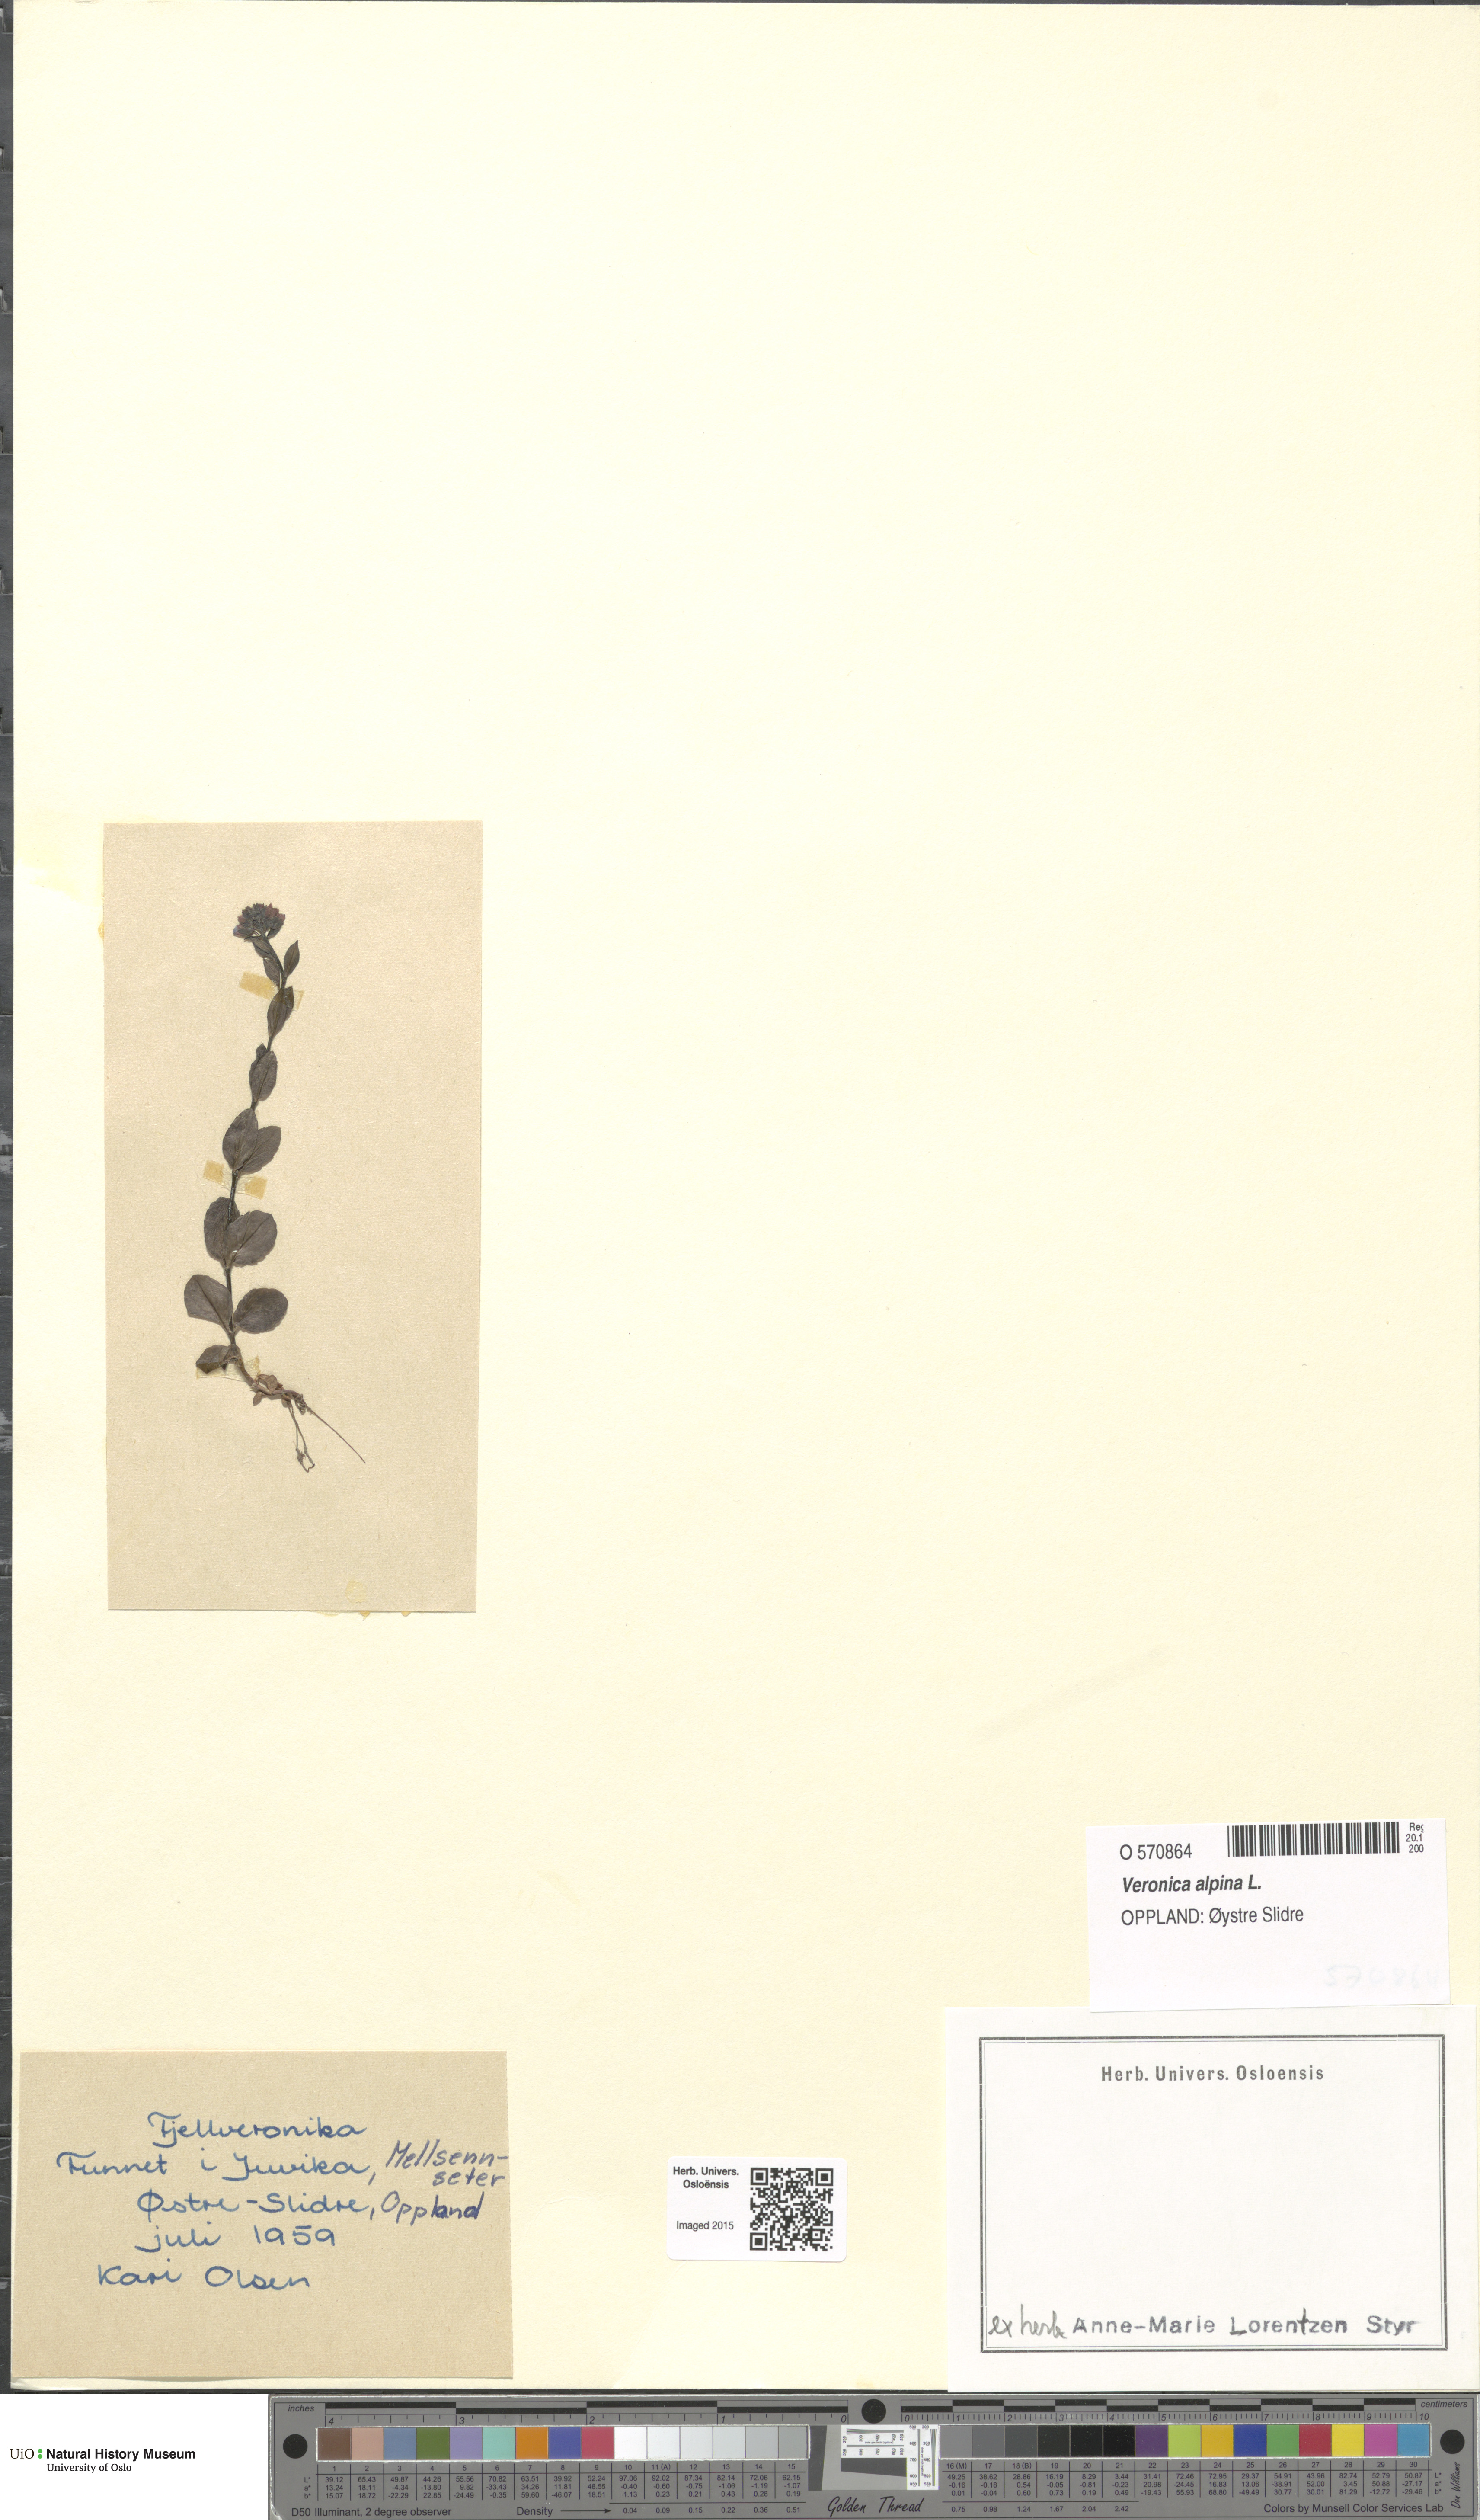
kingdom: Plantae
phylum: Tracheophyta
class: Magnoliopsida
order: Lamiales
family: Plantaginaceae
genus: Veronica
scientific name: Veronica alpina
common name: Alpine speedwell
